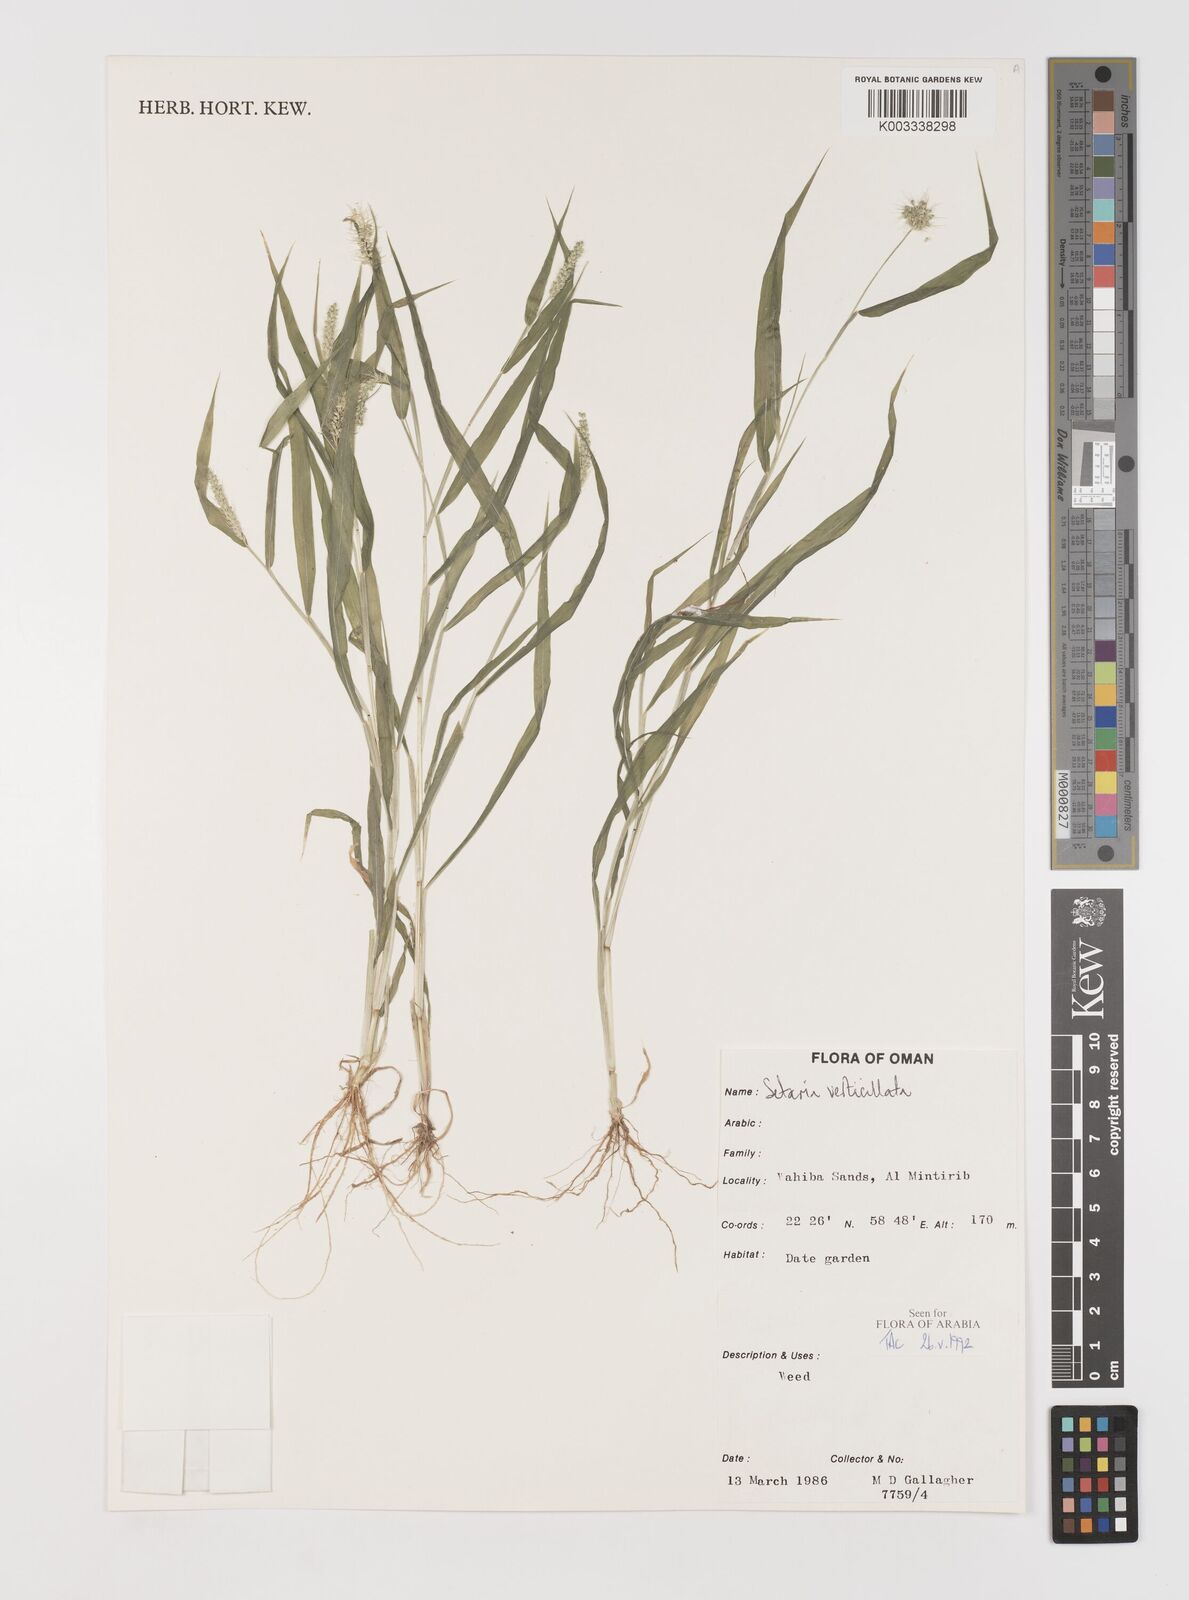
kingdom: Plantae
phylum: Tracheophyta
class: Liliopsida
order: Poales
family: Poaceae
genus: Setaria
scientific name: Setaria verticillata
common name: Hooked bristlegrass
